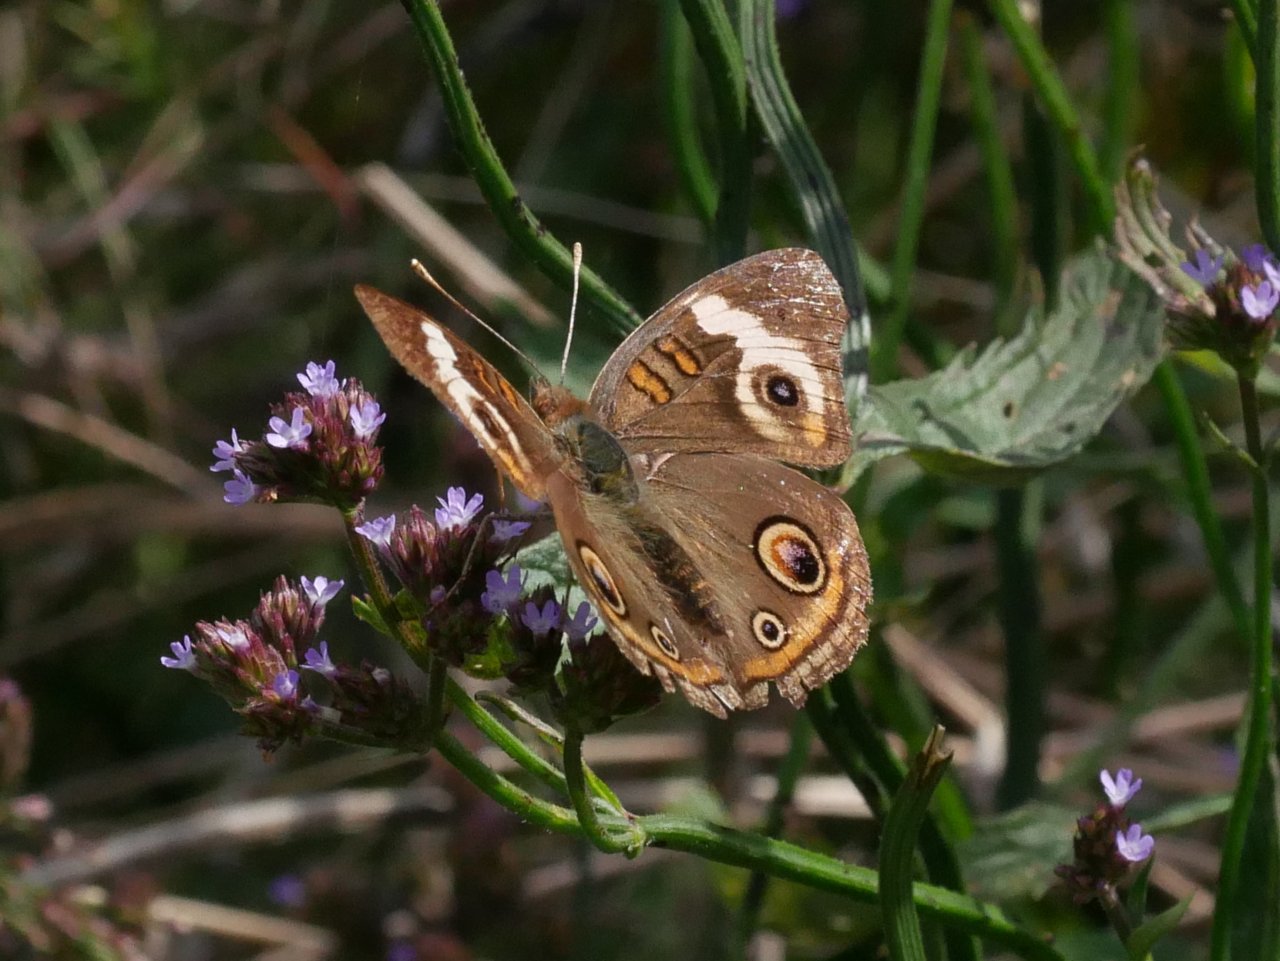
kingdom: Animalia
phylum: Arthropoda
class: Insecta
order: Lepidoptera
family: Nymphalidae
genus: Junonia
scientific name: Junonia coenia
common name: Common Buckeye
